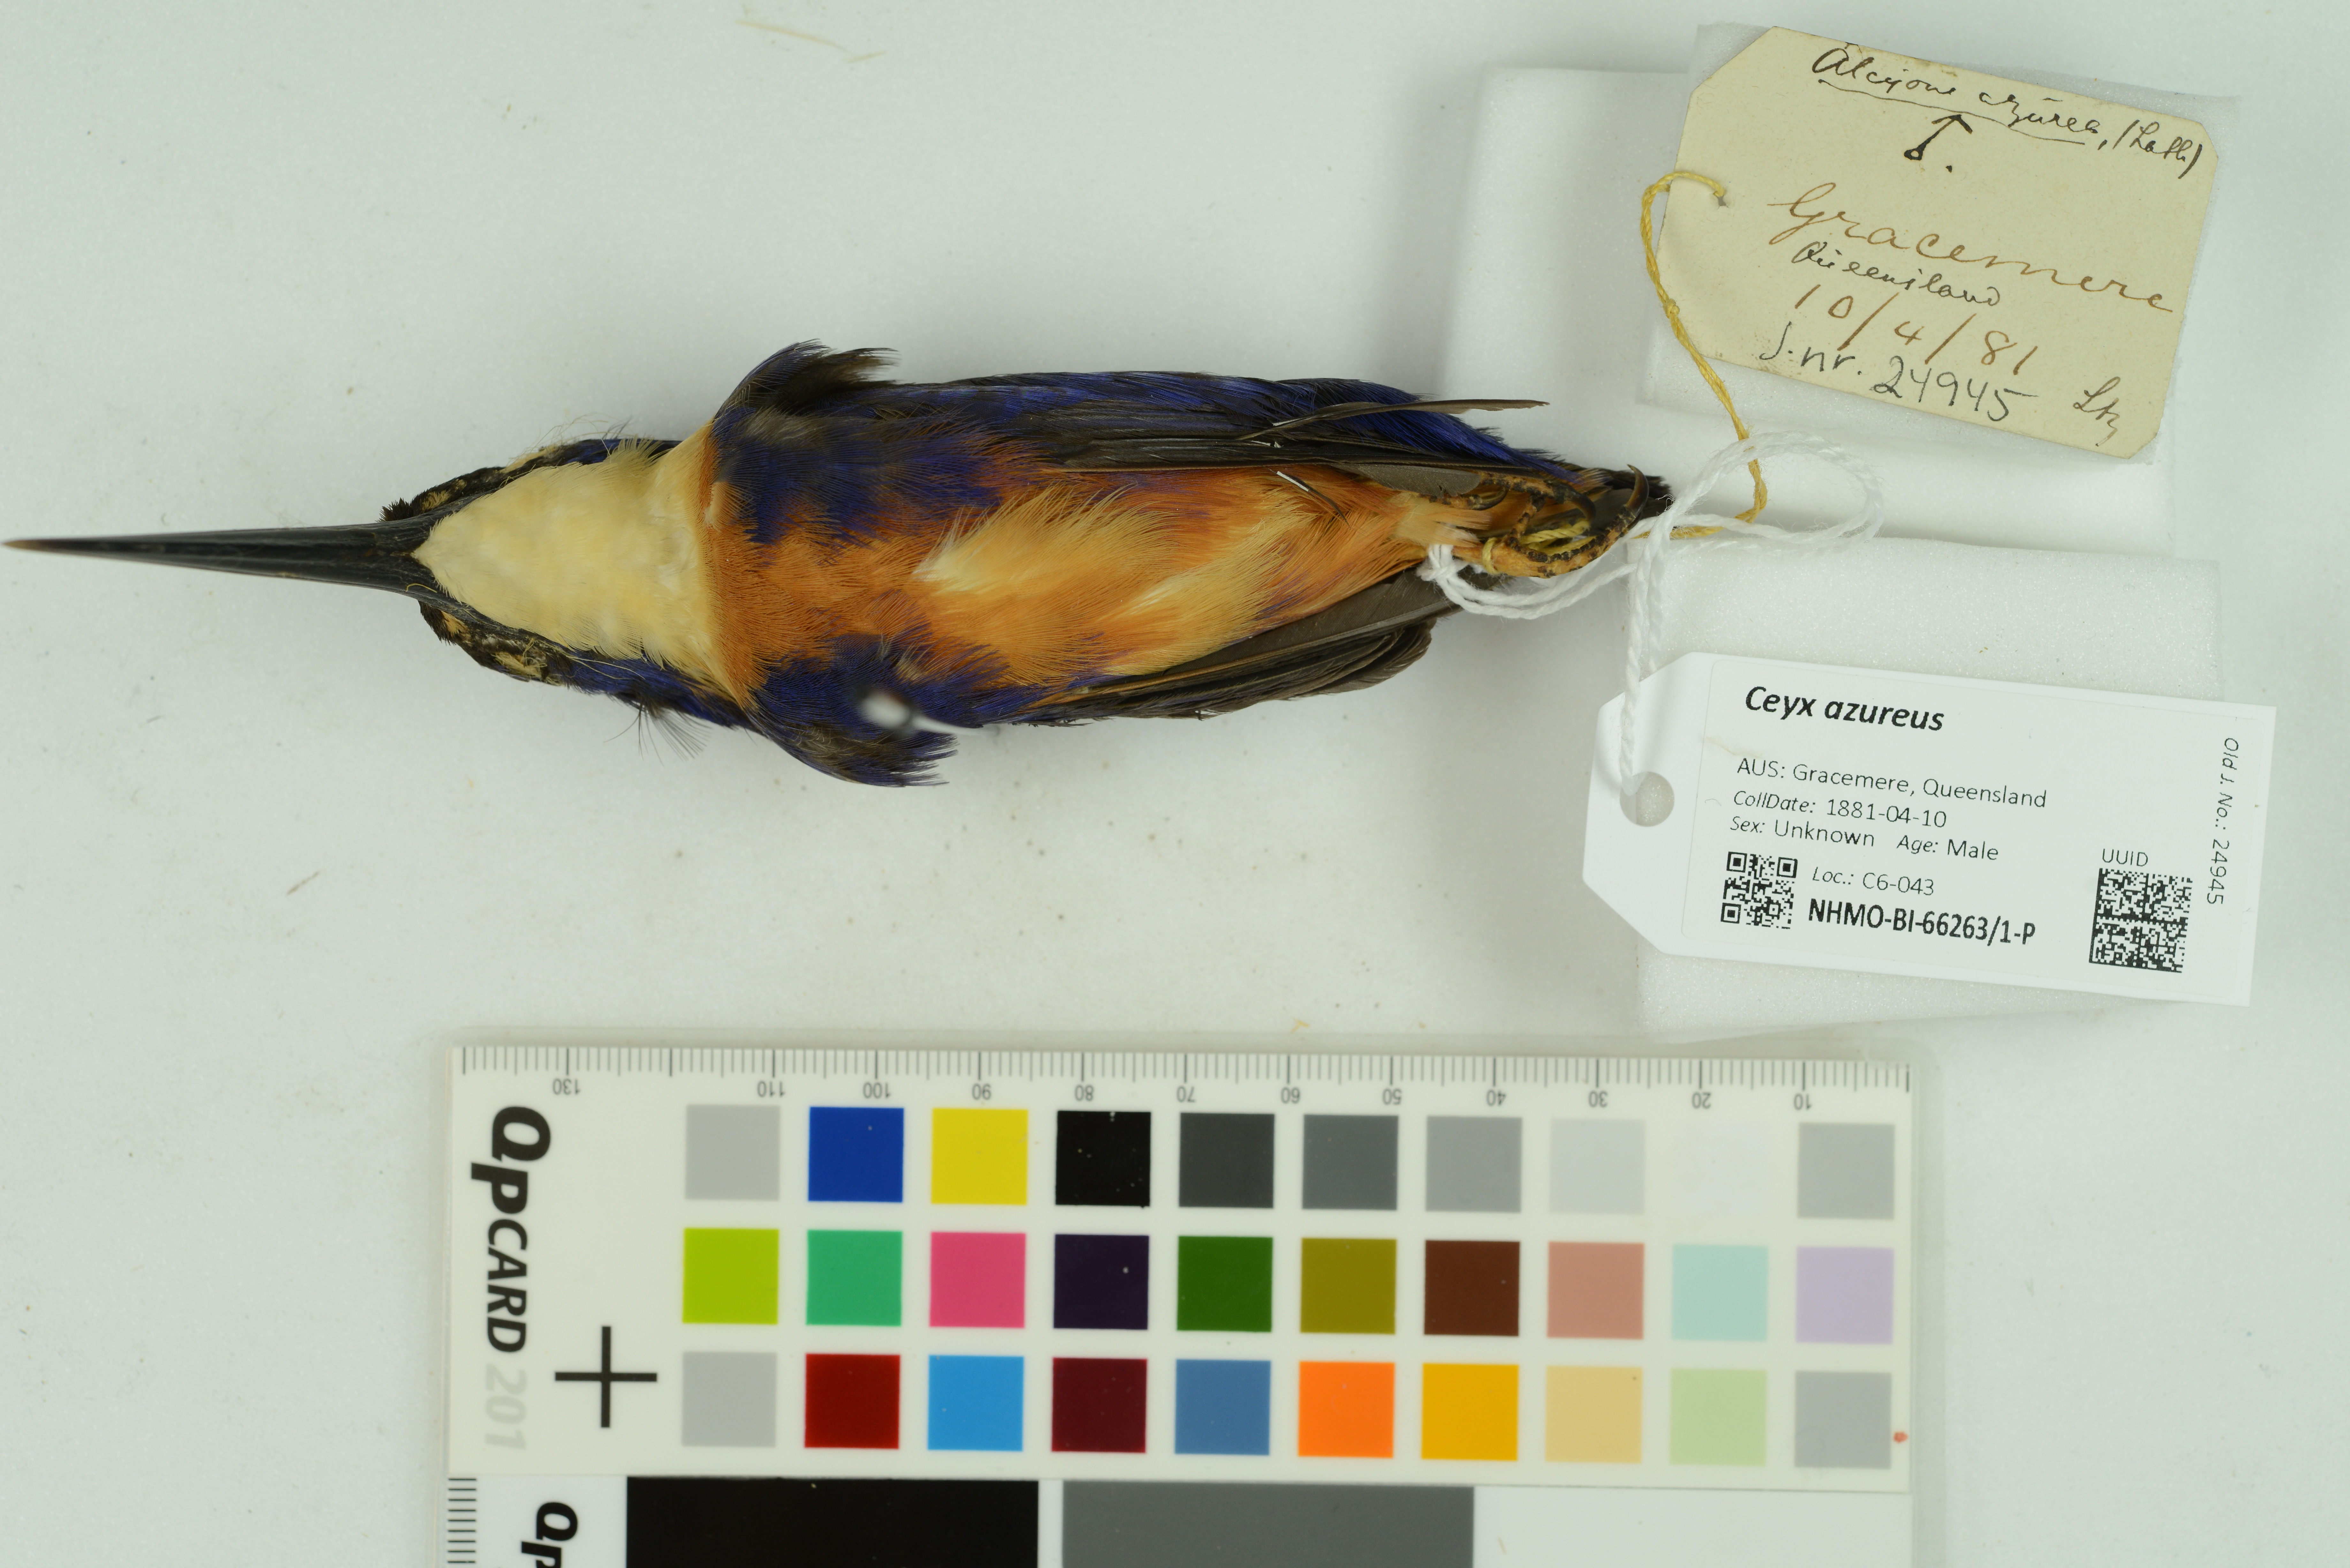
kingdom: Animalia
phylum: Chordata
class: Aves
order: Coraciiformes
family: Alcedinidae
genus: Ceyx
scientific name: Ceyx azureus
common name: Azure kingfisher
